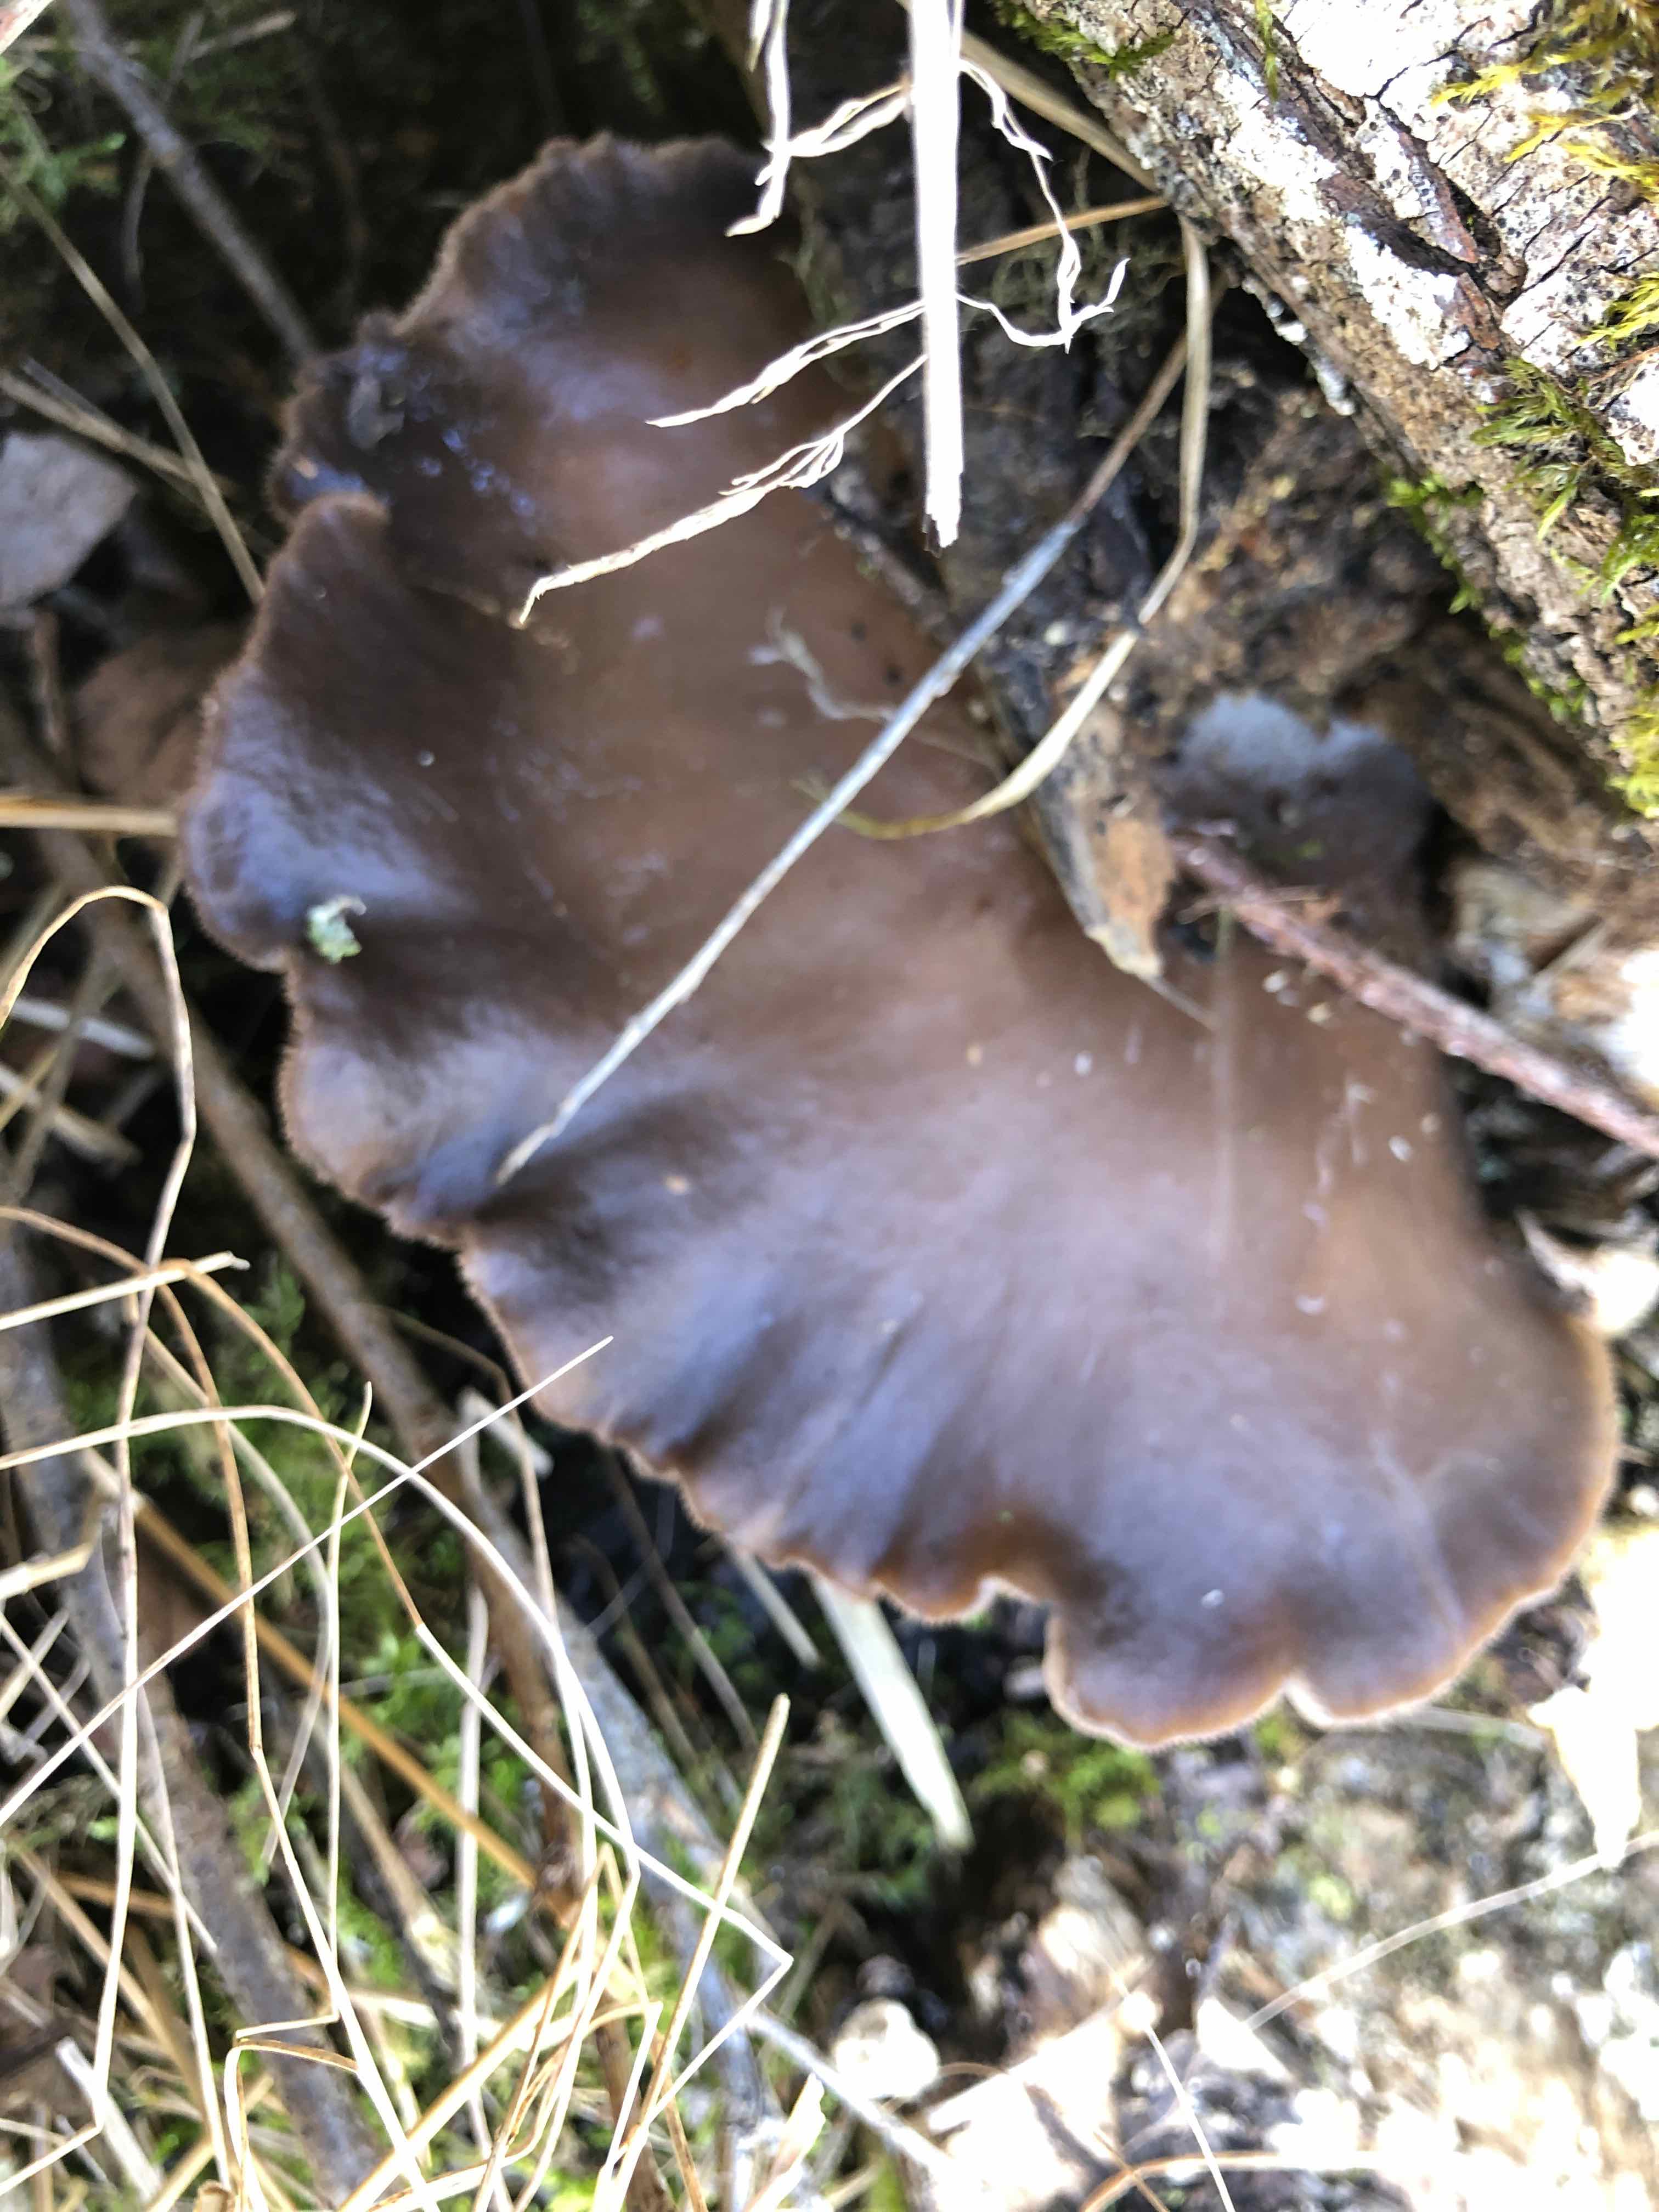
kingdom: Fungi
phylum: Basidiomycota
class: Agaricomycetes
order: Agaricales
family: Pleurotaceae
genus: Pleurotus
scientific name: Pleurotus ostreatus
